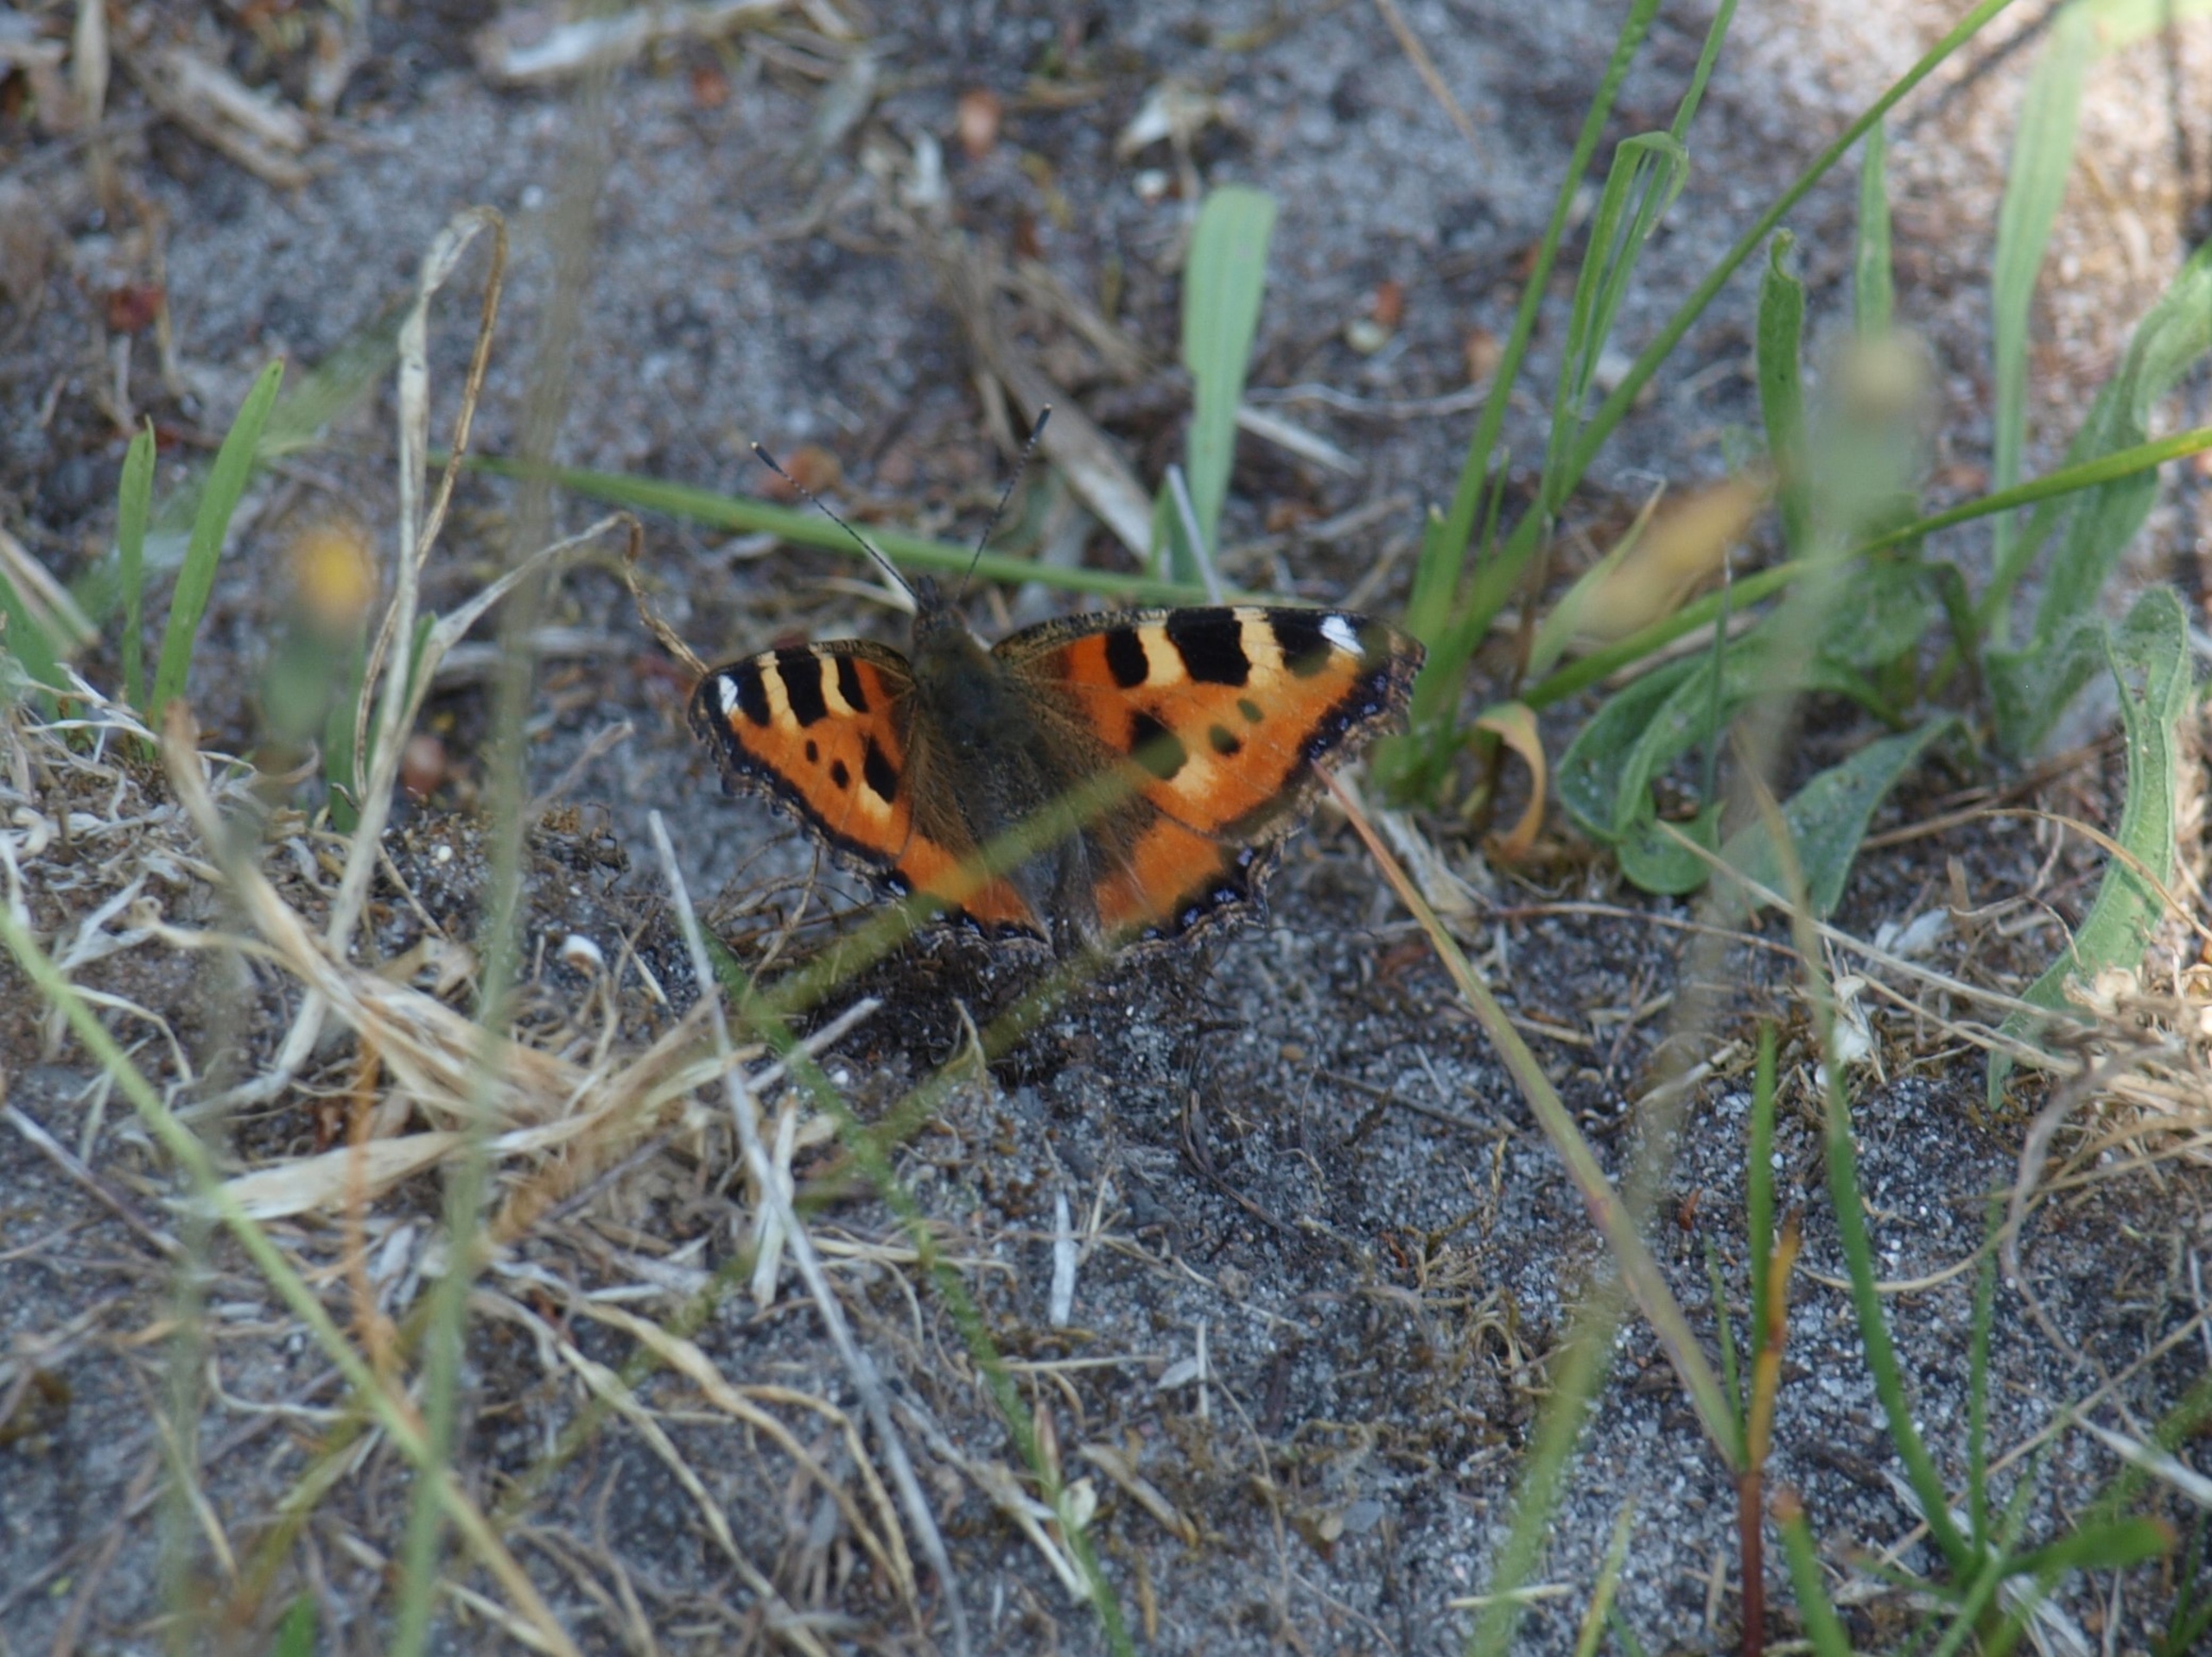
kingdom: Animalia
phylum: Arthropoda
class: Insecta
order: Lepidoptera
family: Nymphalidae
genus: Aglais
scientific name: Aglais urticae
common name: Nældens takvinge
